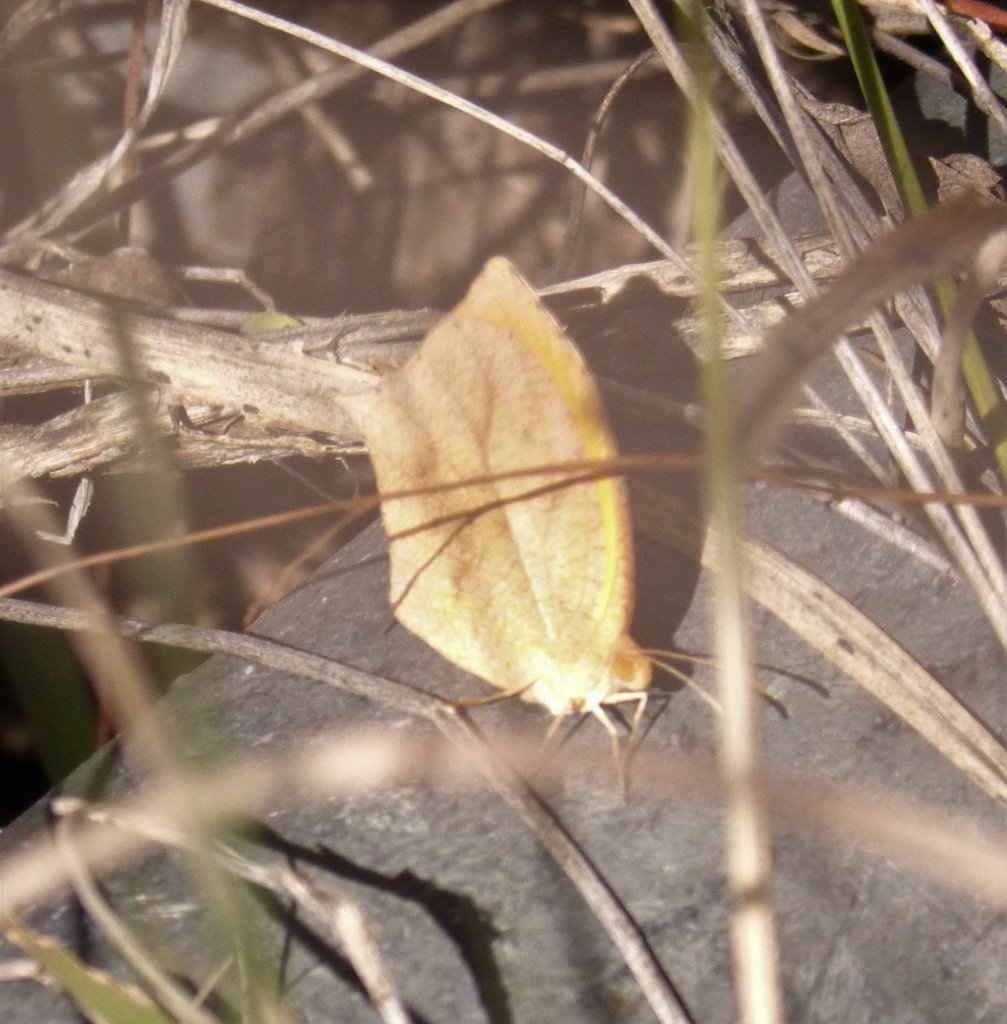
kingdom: Animalia
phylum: Arthropoda
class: Insecta
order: Lepidoptera
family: Pieridae
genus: Pyrisitia
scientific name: Pyrisitia proterpia
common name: Tailed Orange
